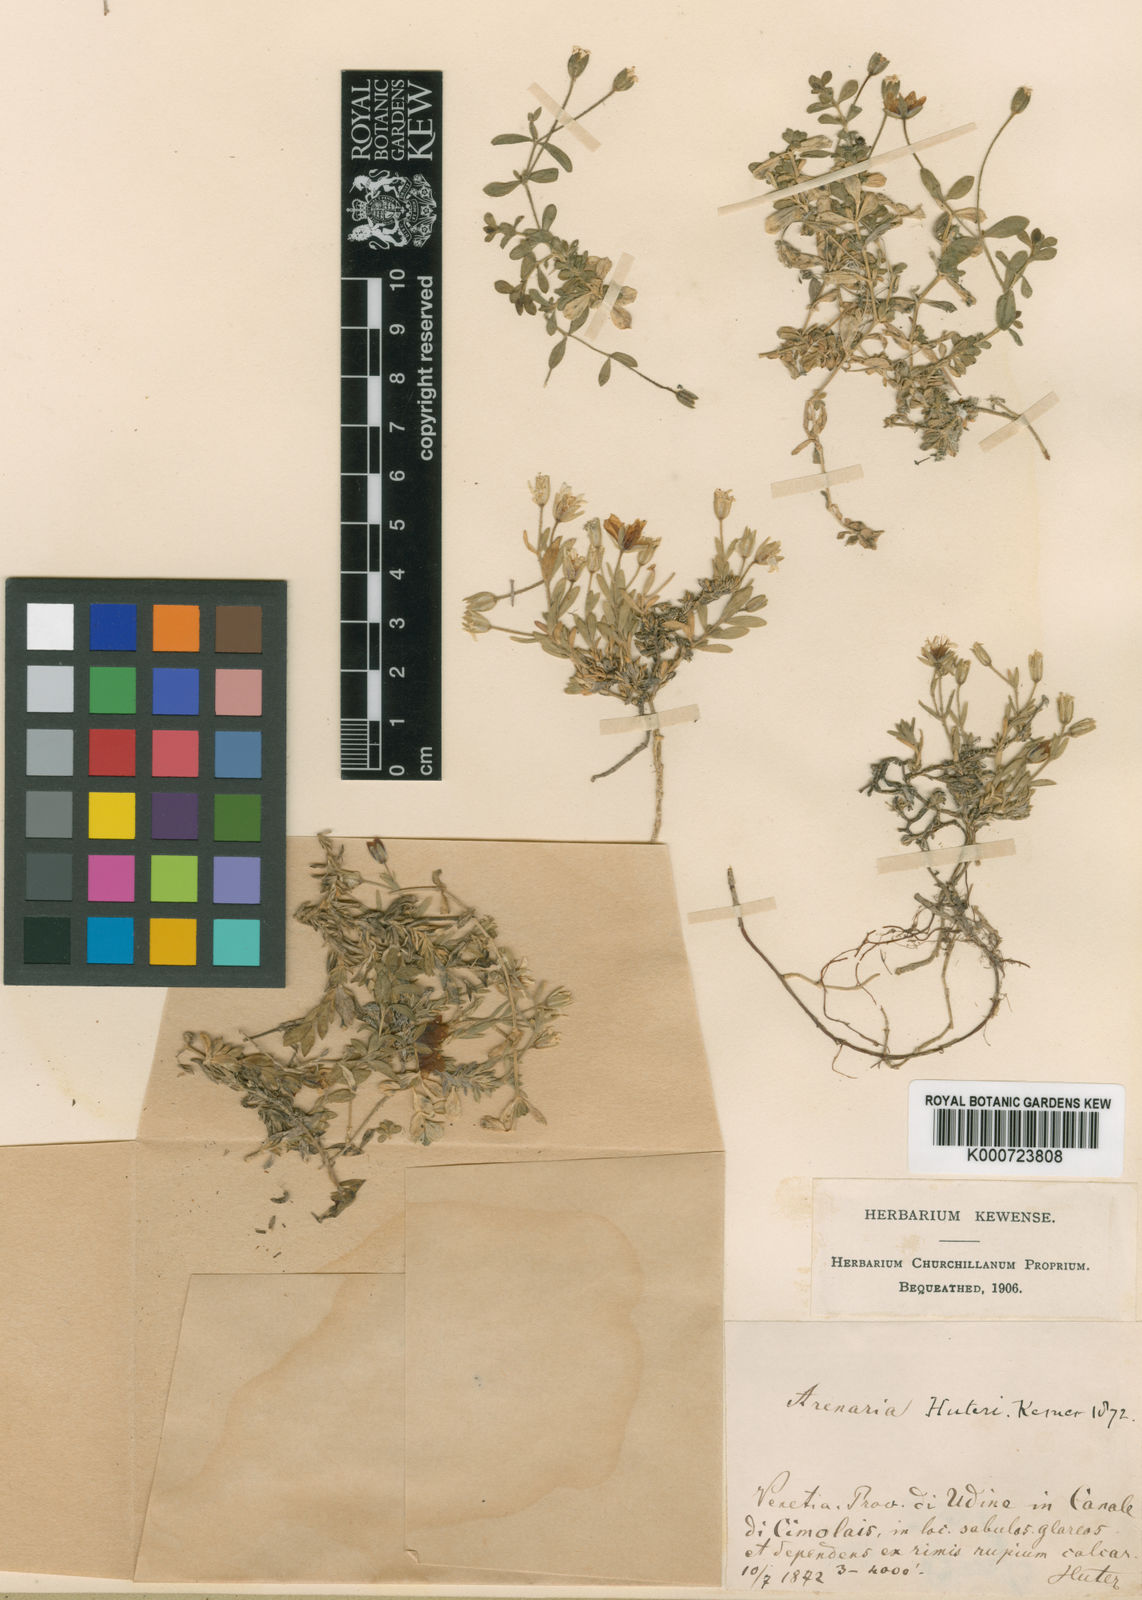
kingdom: Plantae
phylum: Tracheophyta
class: Magnoliopsida
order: Caryophyllales
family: Caryophyllaceae
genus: Arenaria
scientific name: Arenaria huteri
